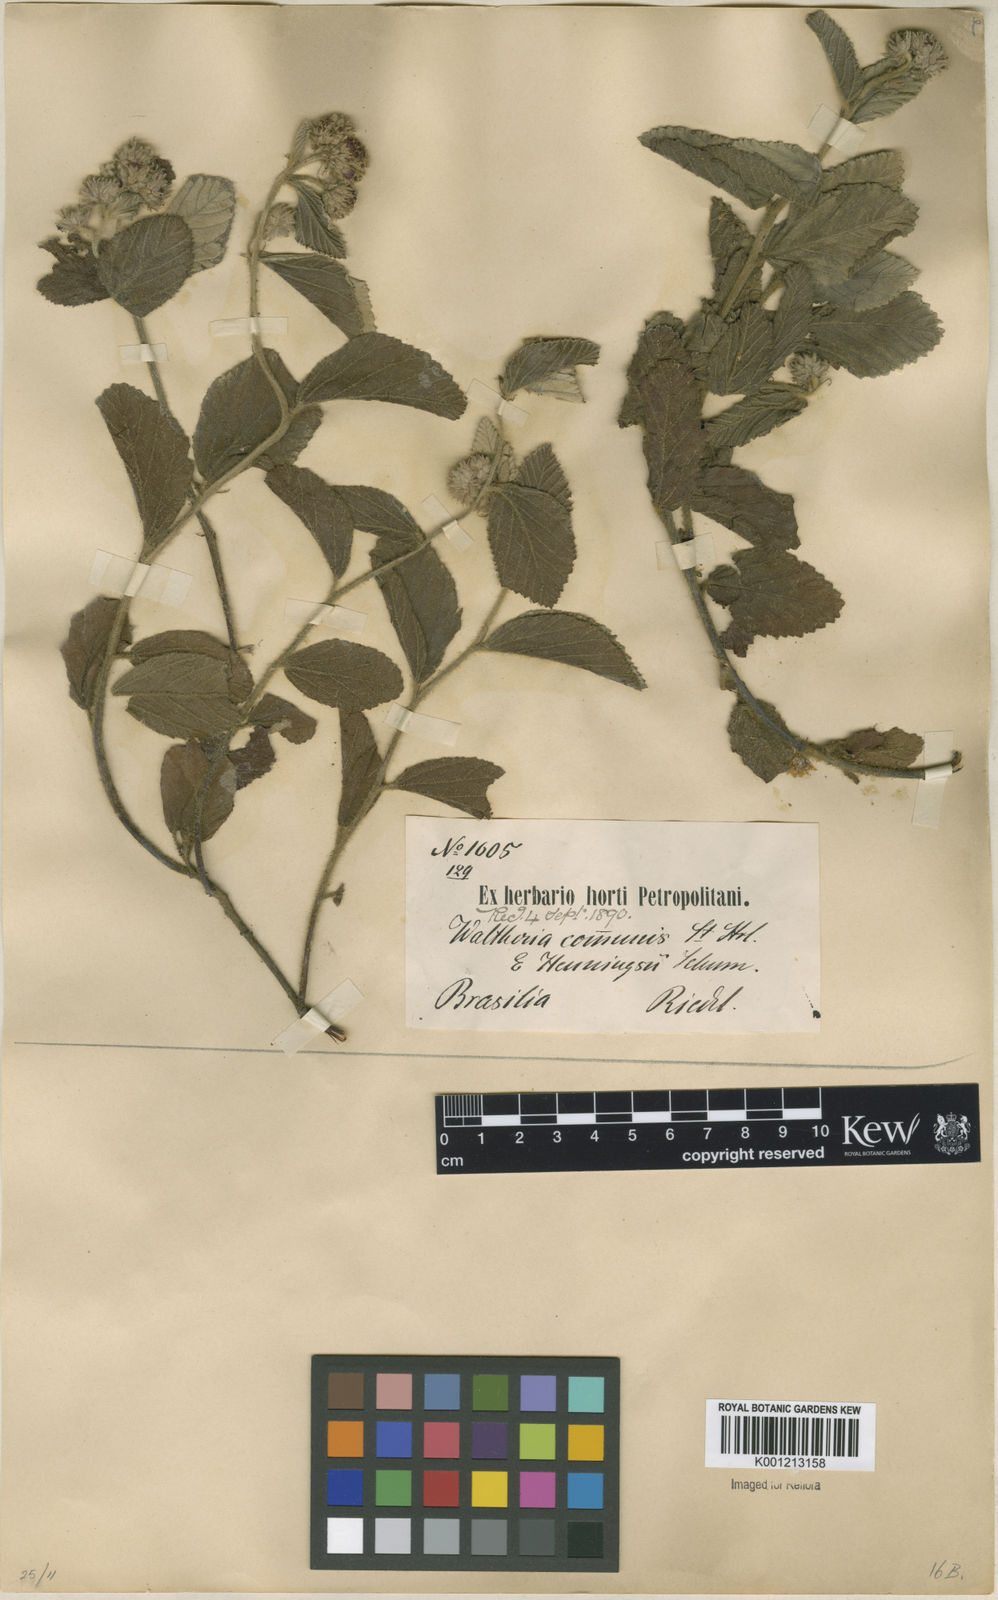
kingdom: Plantae
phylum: Tracheophyta
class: Magnoliopsida
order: Malvales
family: Malvaceae
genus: Waltheria
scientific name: Waltheria communis
